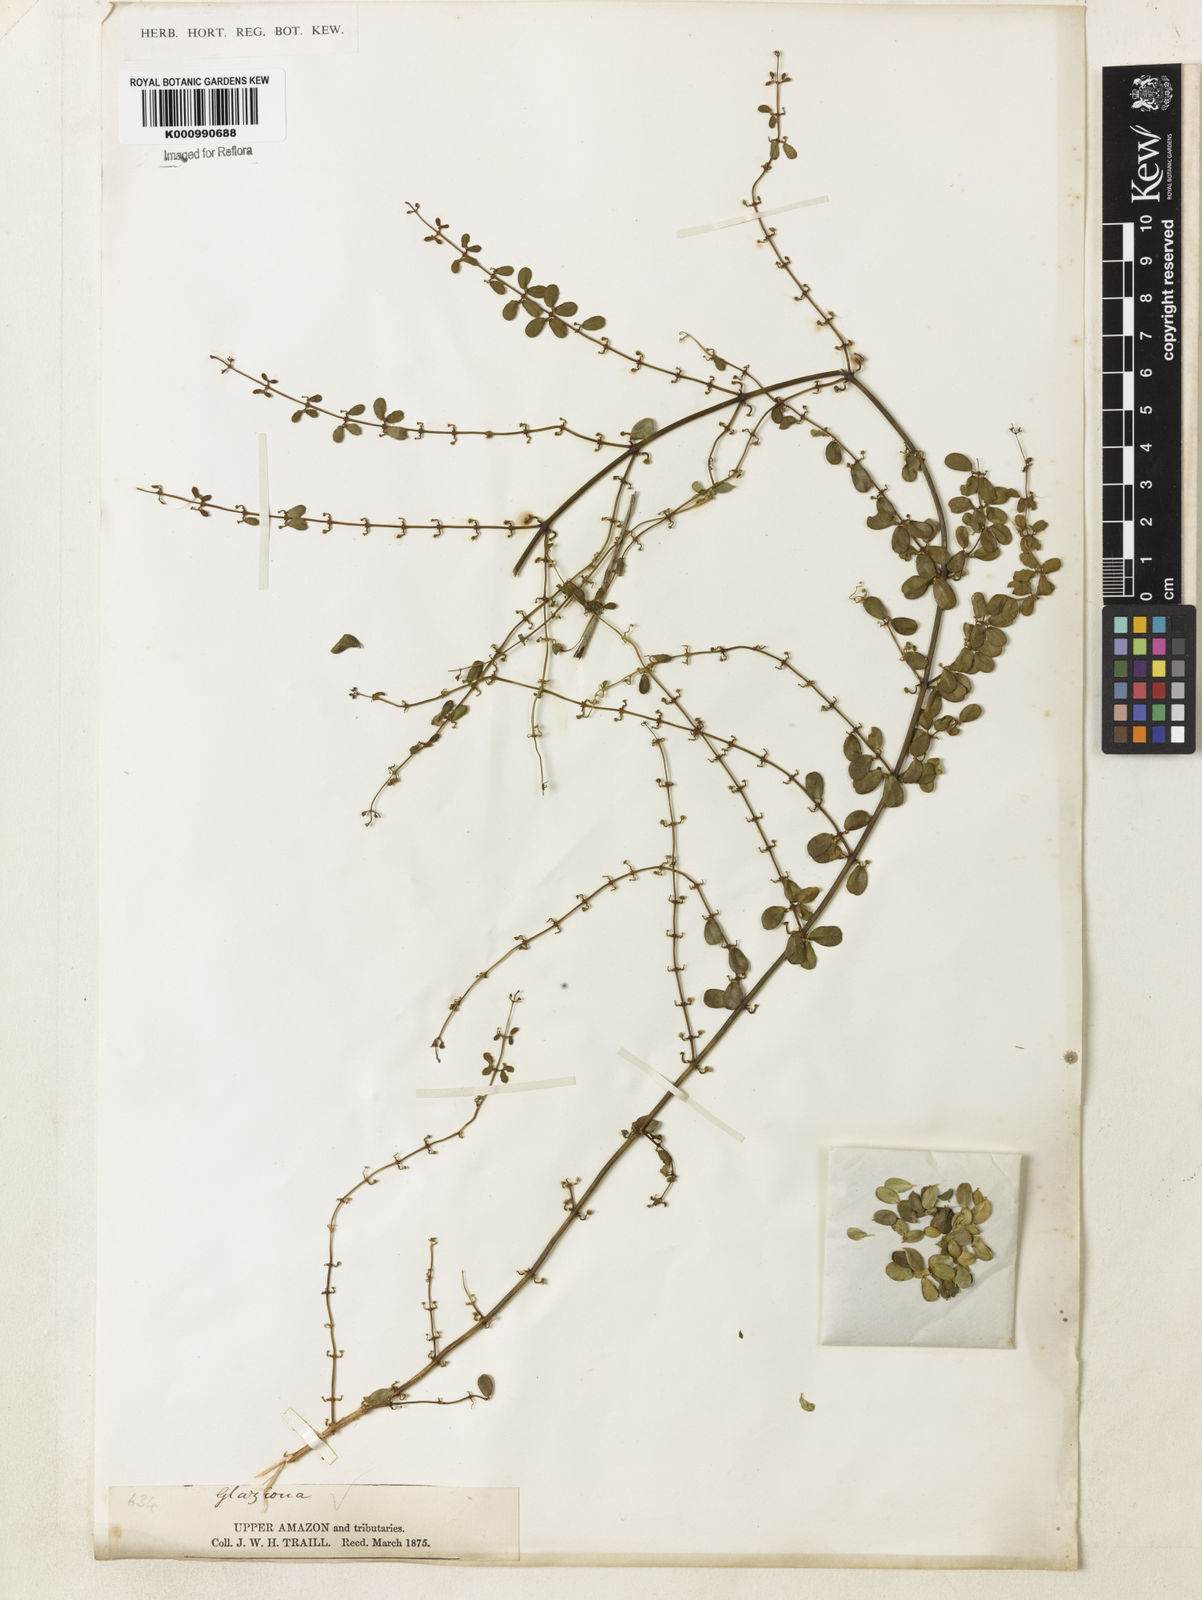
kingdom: Plantae
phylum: Tracheophyta
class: Magnoliopsida
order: Lamiales
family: Bignoniaceae
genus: Amphilophium
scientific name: Amphilophium bauhinioides
